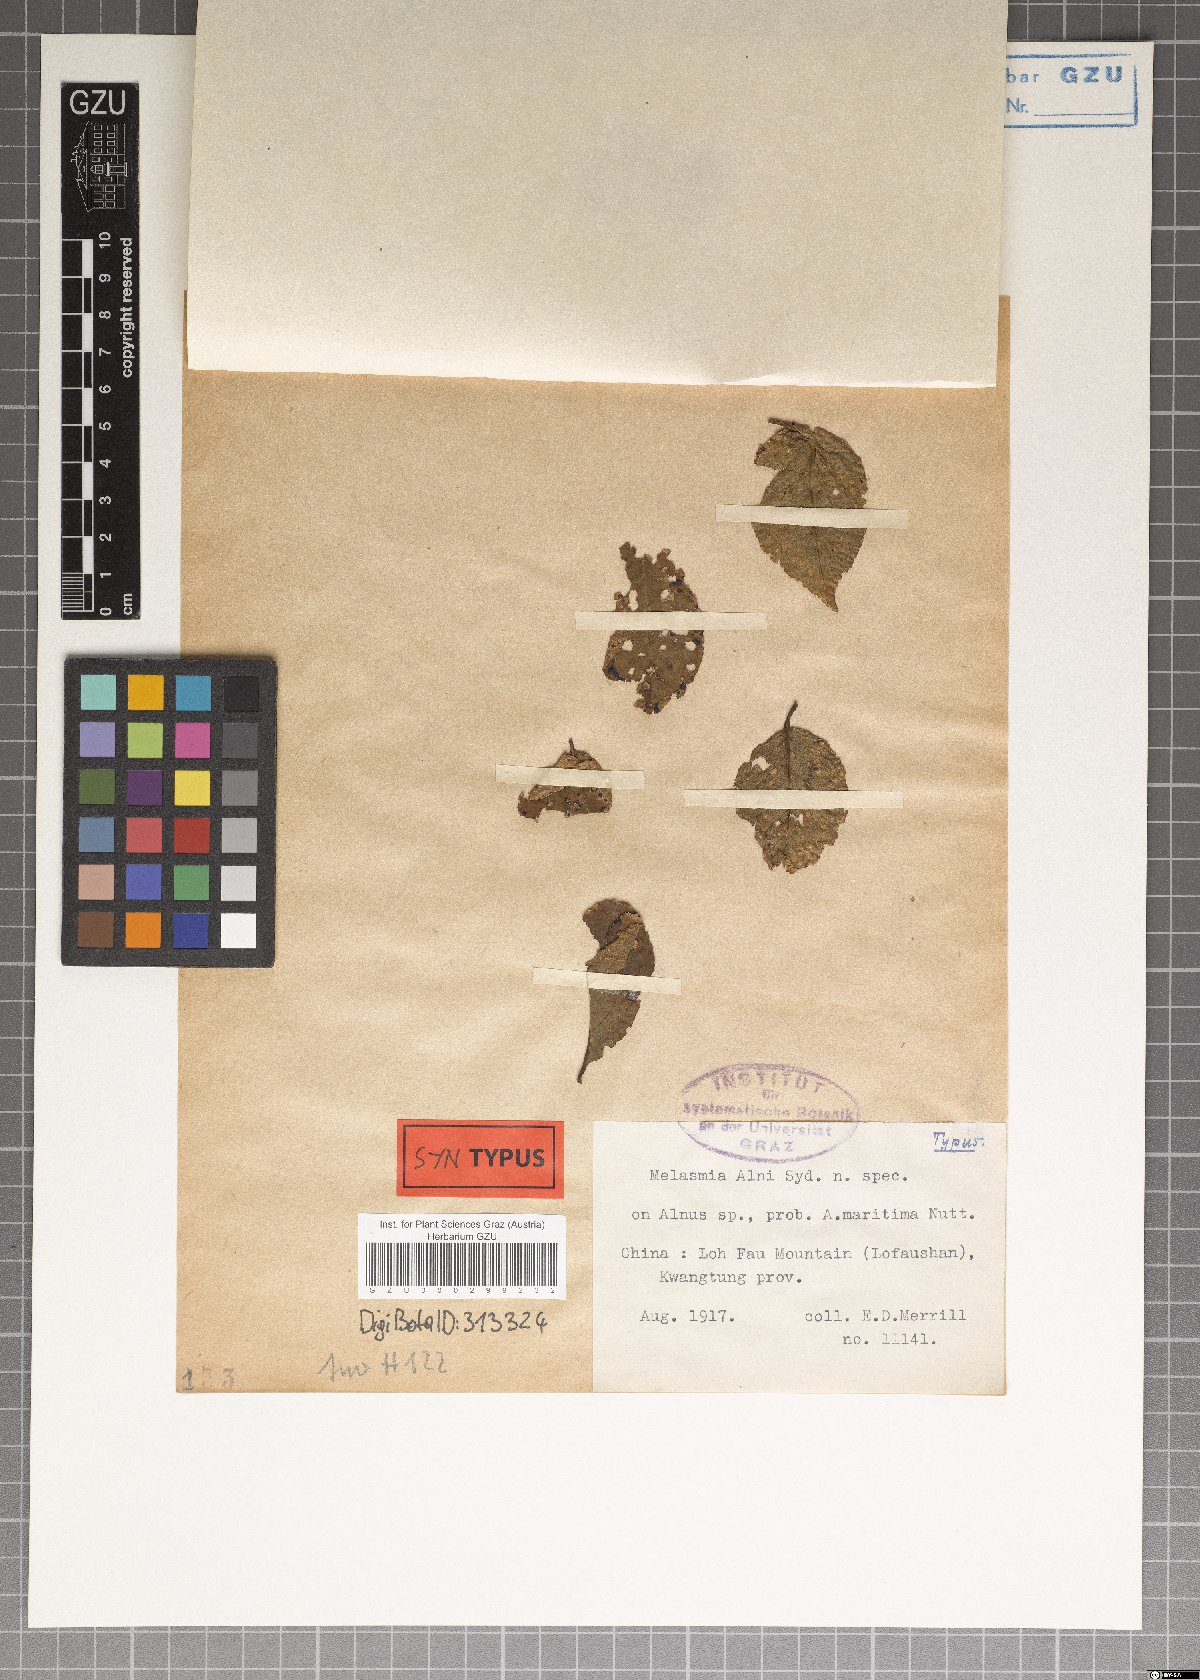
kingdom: Fungi
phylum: Ascomycota
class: Leotiomycetes
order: Rhytismatales
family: Rhytismataceae
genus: Melasmia
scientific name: Melasmia
